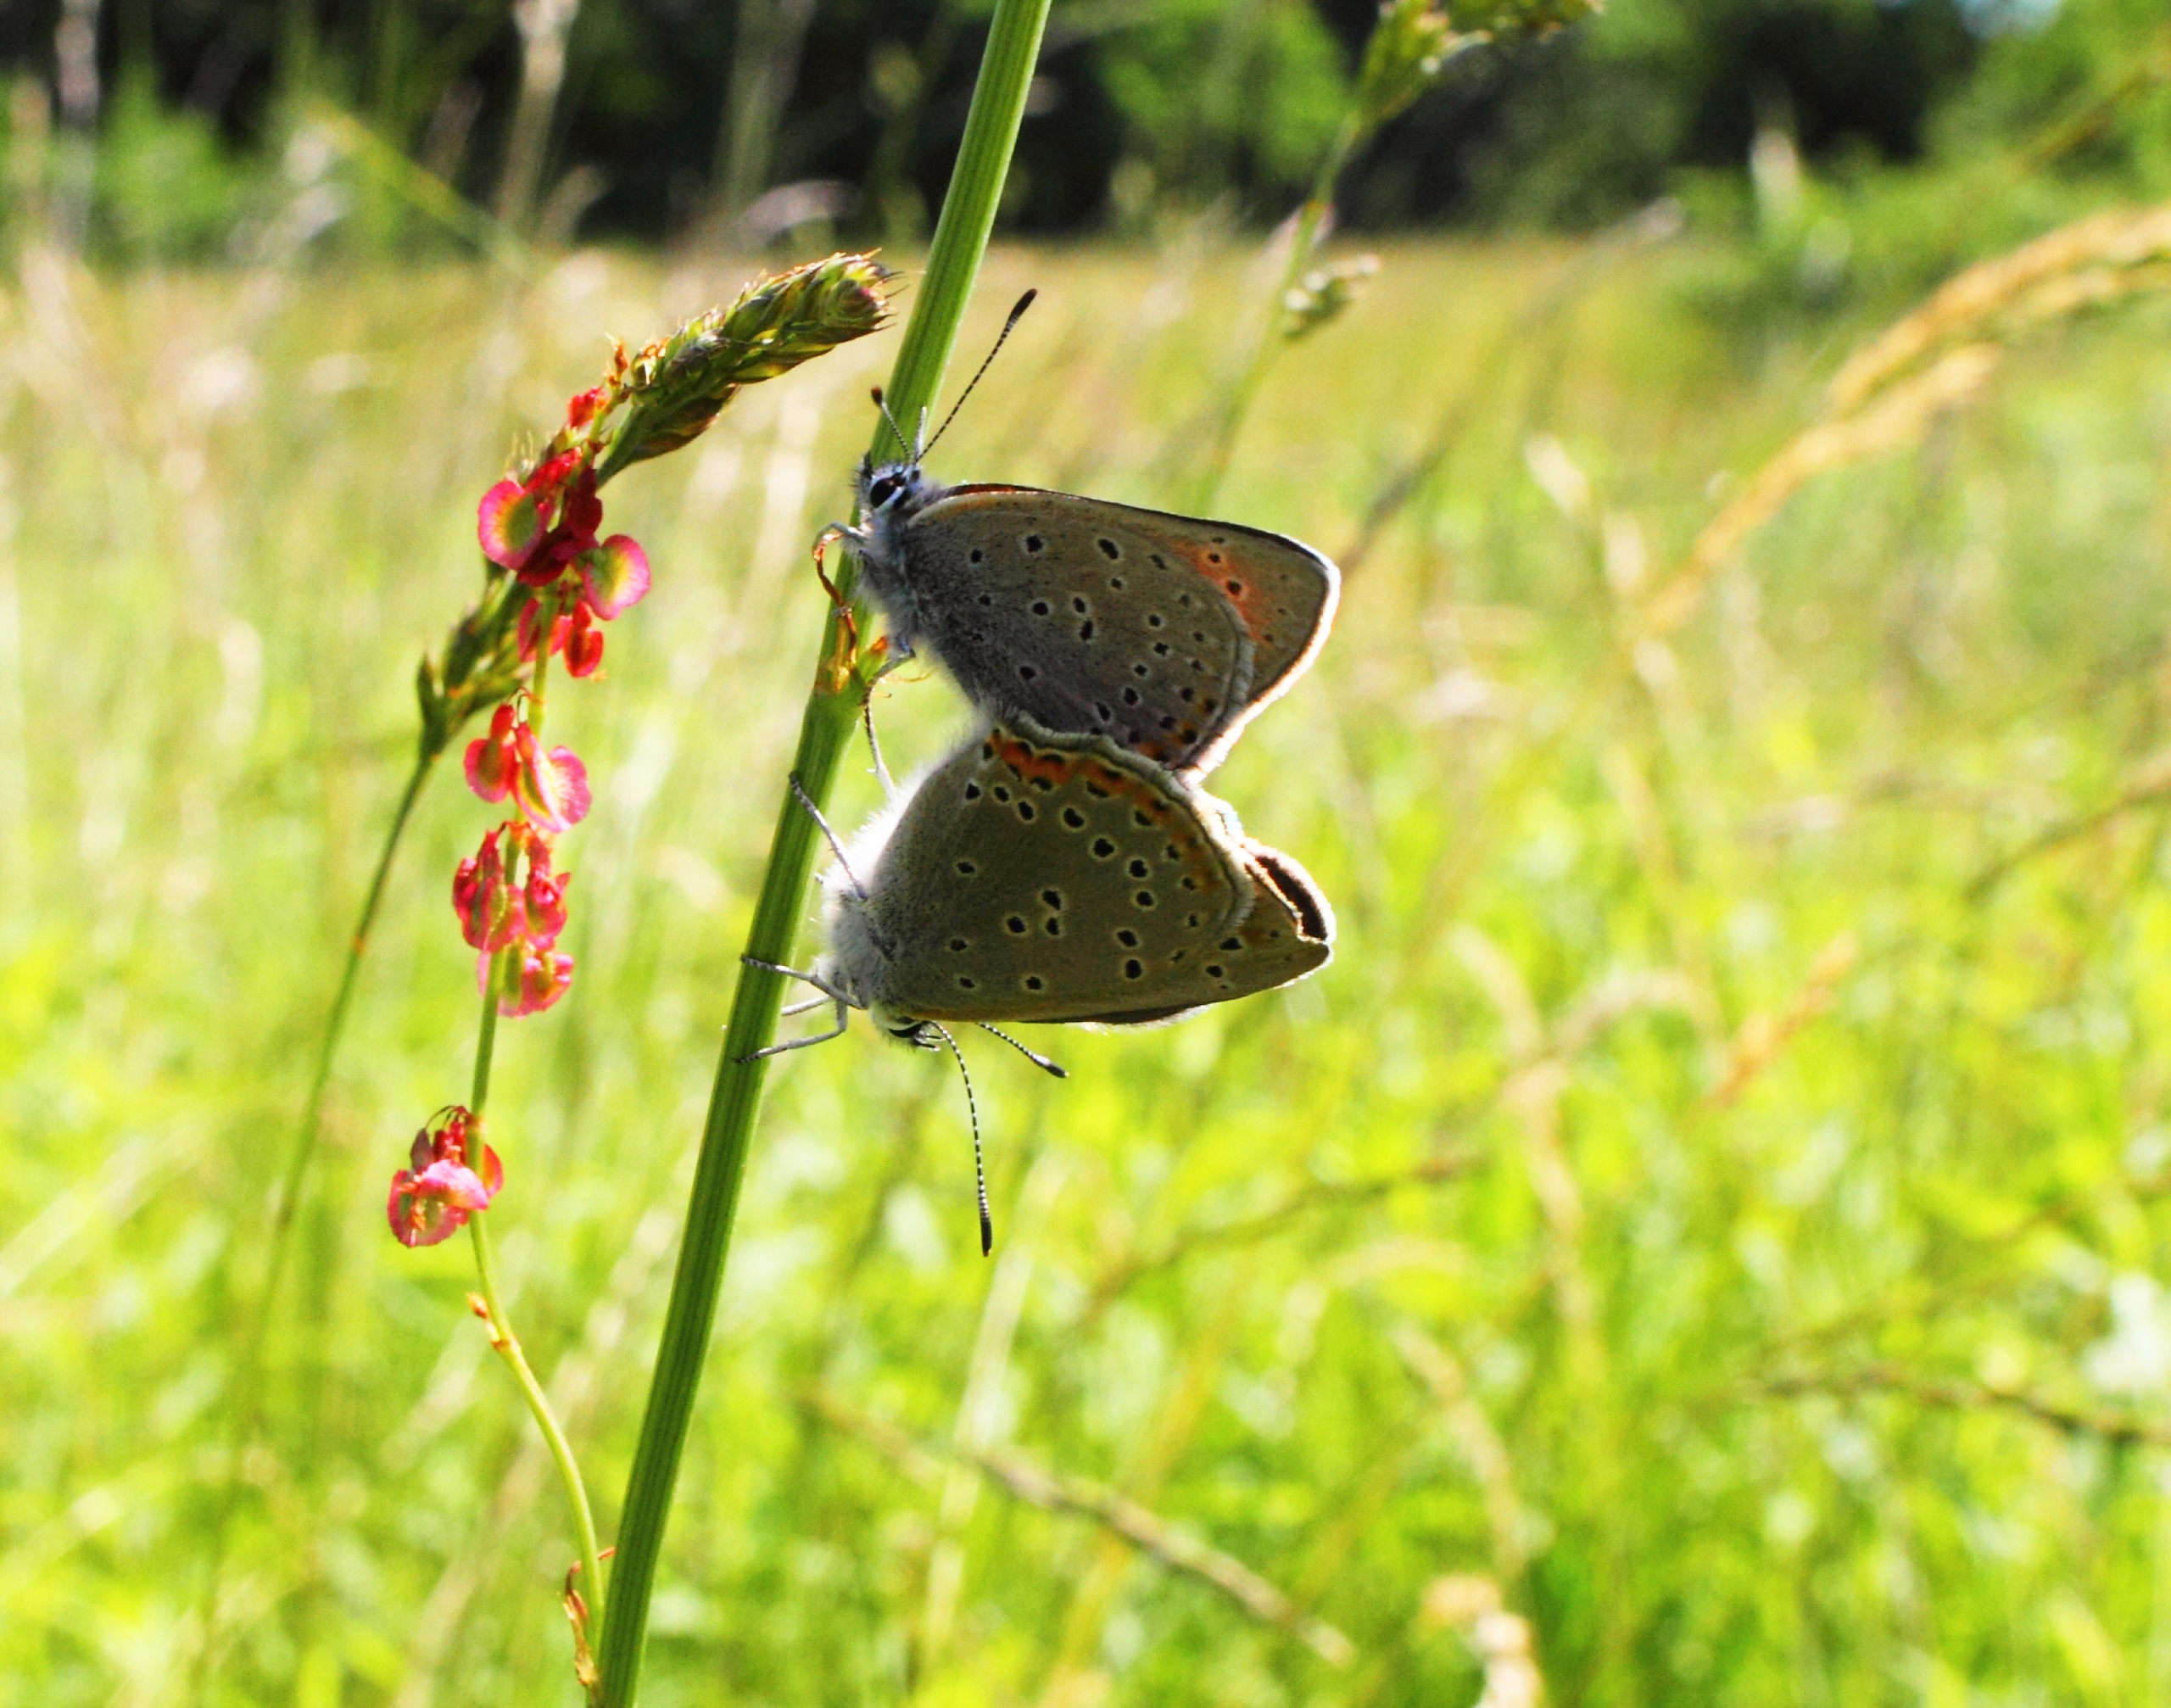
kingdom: Animalia
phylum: Arthropoda
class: Insecta
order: Lepidoptera
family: Lycaenidae
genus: Palaeochrysophanus
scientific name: Palaeochrysophanus hippothoe
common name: Violetrandet ildfugl
